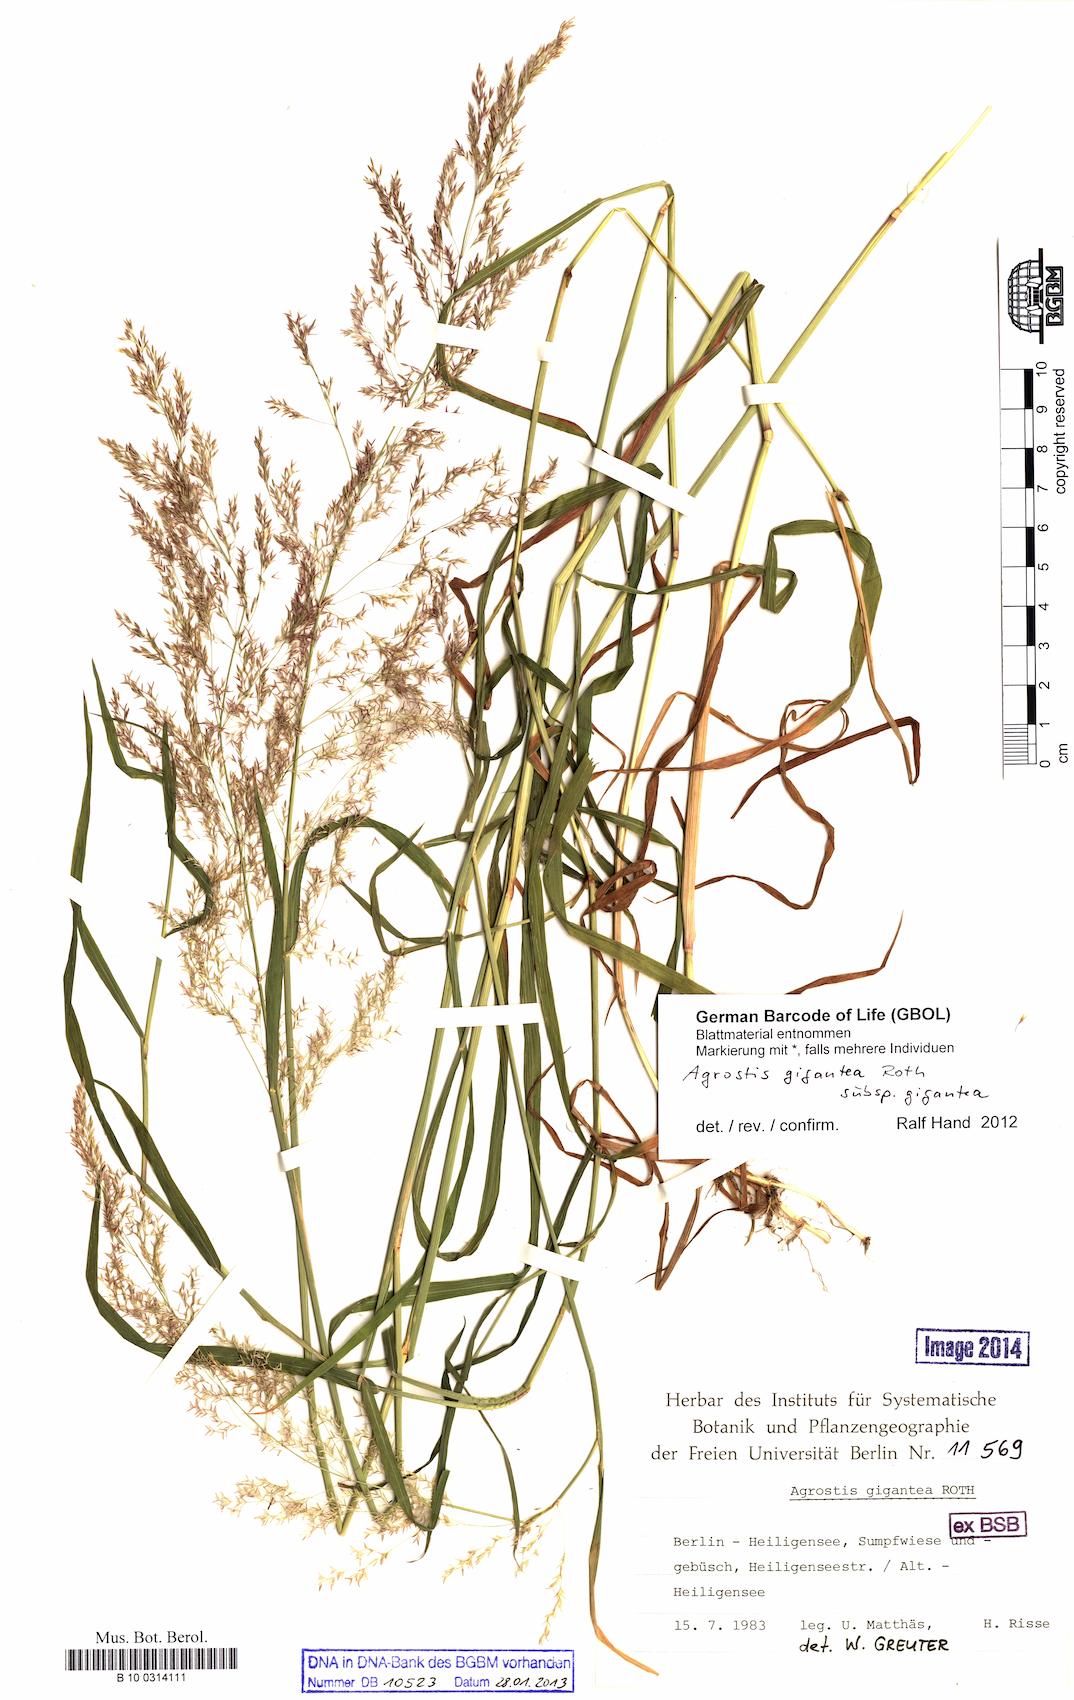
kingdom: Plantae
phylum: Tracheophyta
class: Liliopsida
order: Poales
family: Poaceae
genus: Agrostis
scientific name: Agrostis gigantea
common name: Black bent
